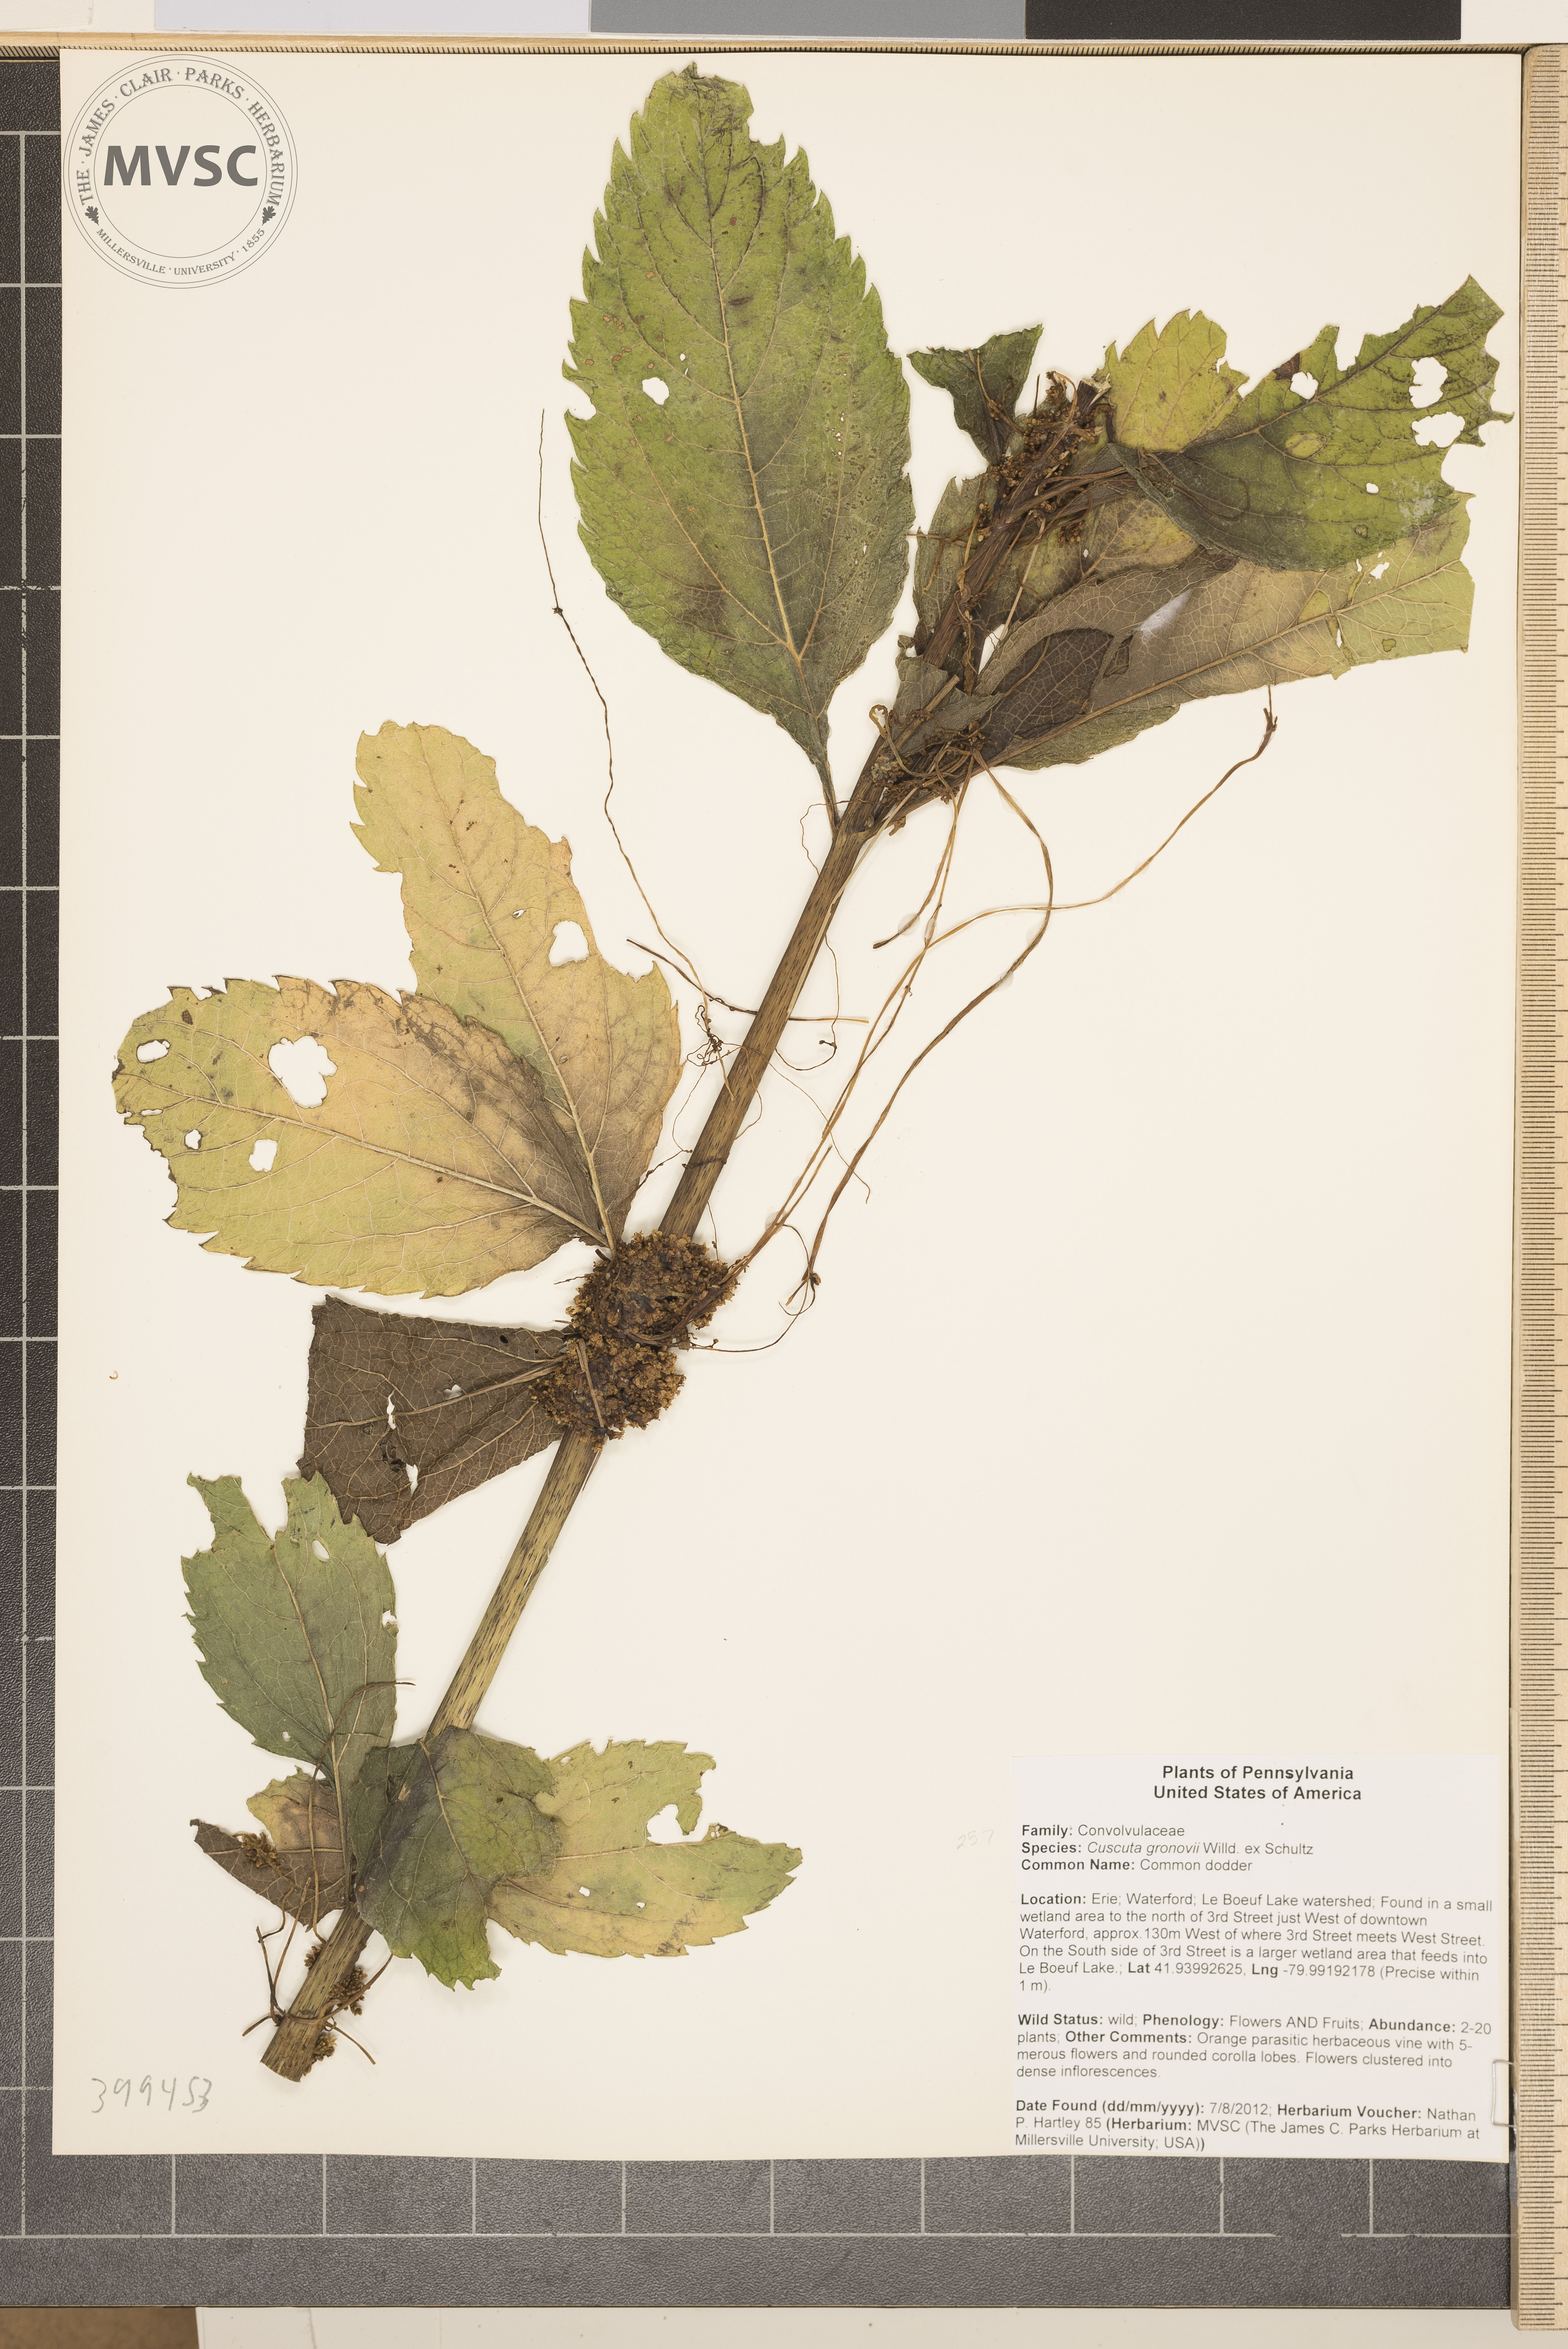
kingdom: Plantae
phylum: Tracheophyta
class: Magnoliopsida
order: Solanales
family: Convolvulaceae
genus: Cuscuta
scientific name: Cuscuta gronovii
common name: Clover dodder
